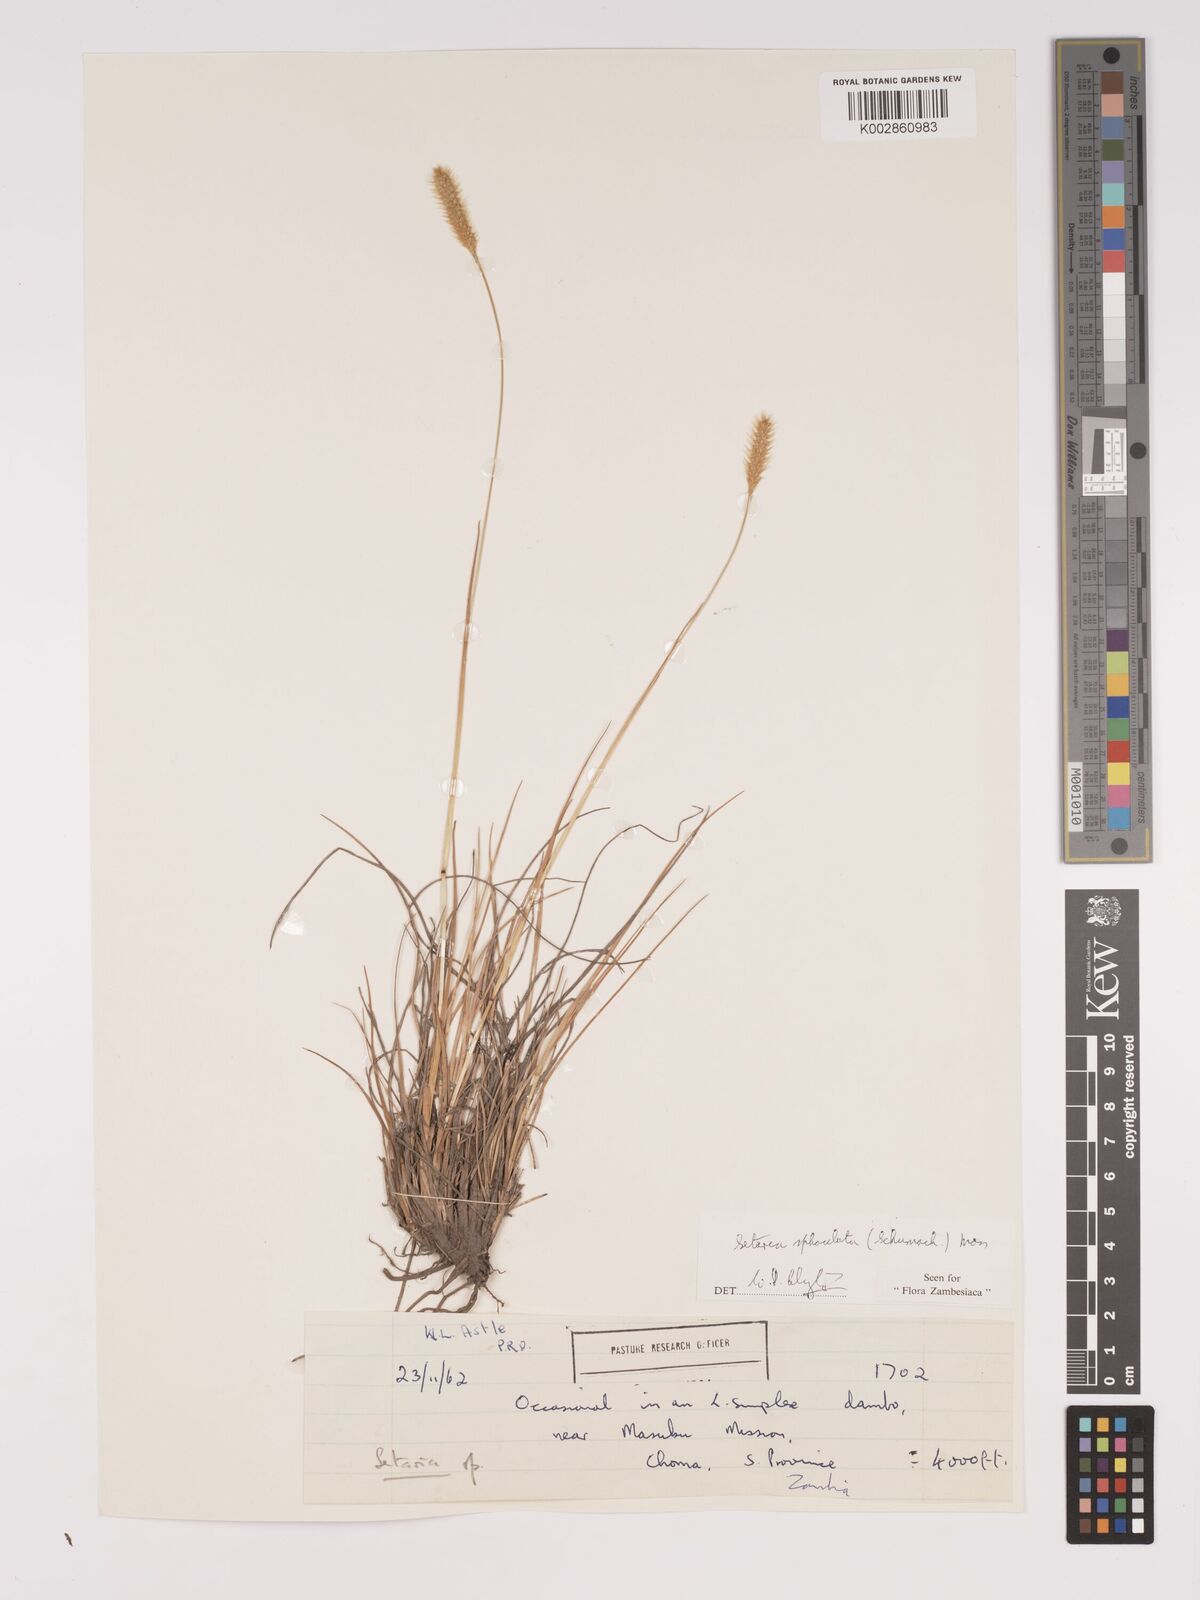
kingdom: Plantae
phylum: Tracheophyta
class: Liliopsida
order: Poales
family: Poaceae
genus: Setaria
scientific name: Setaria
